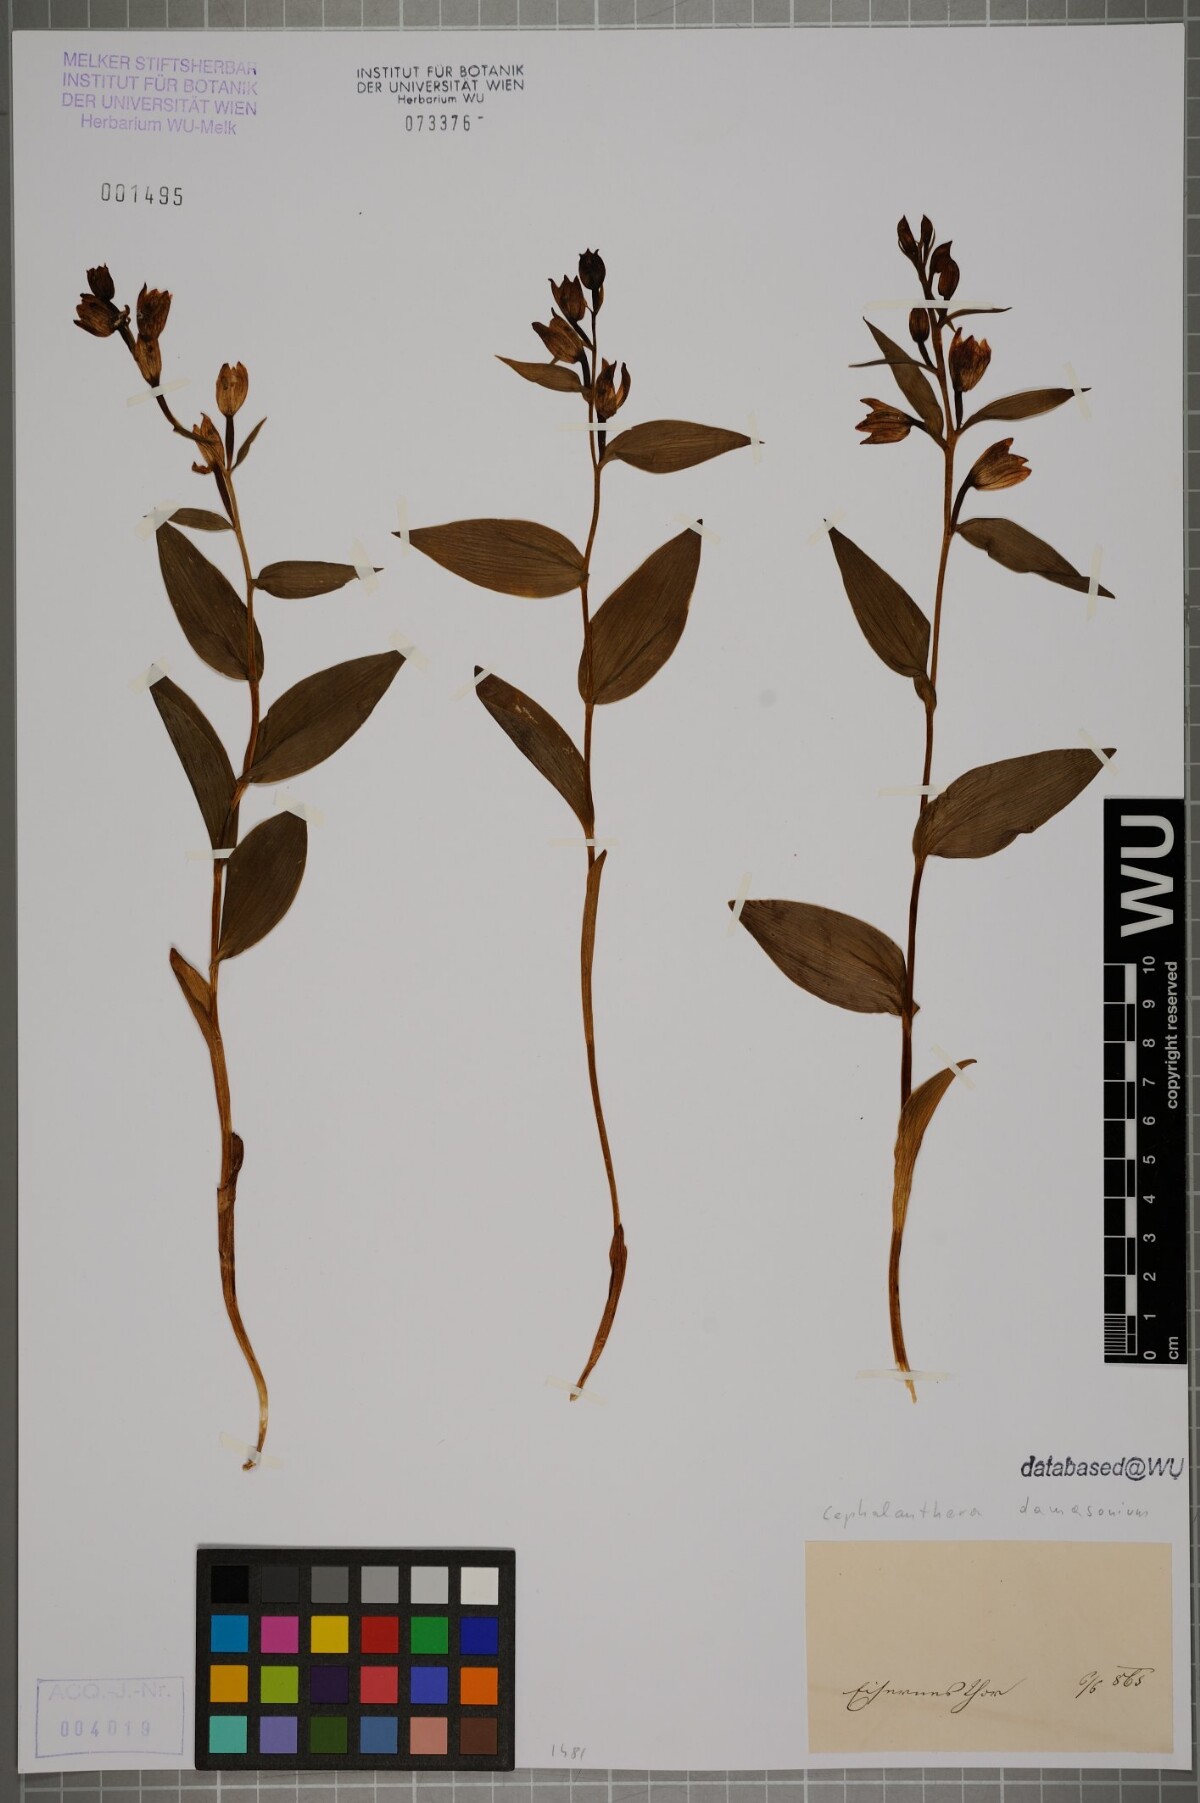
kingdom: Plantae
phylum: Tracheophyta
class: Liliopsida
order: Asparagales
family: Orchidaceae
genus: Cephalanthera
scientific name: Cephalanthera damasonium
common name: White helleborine
